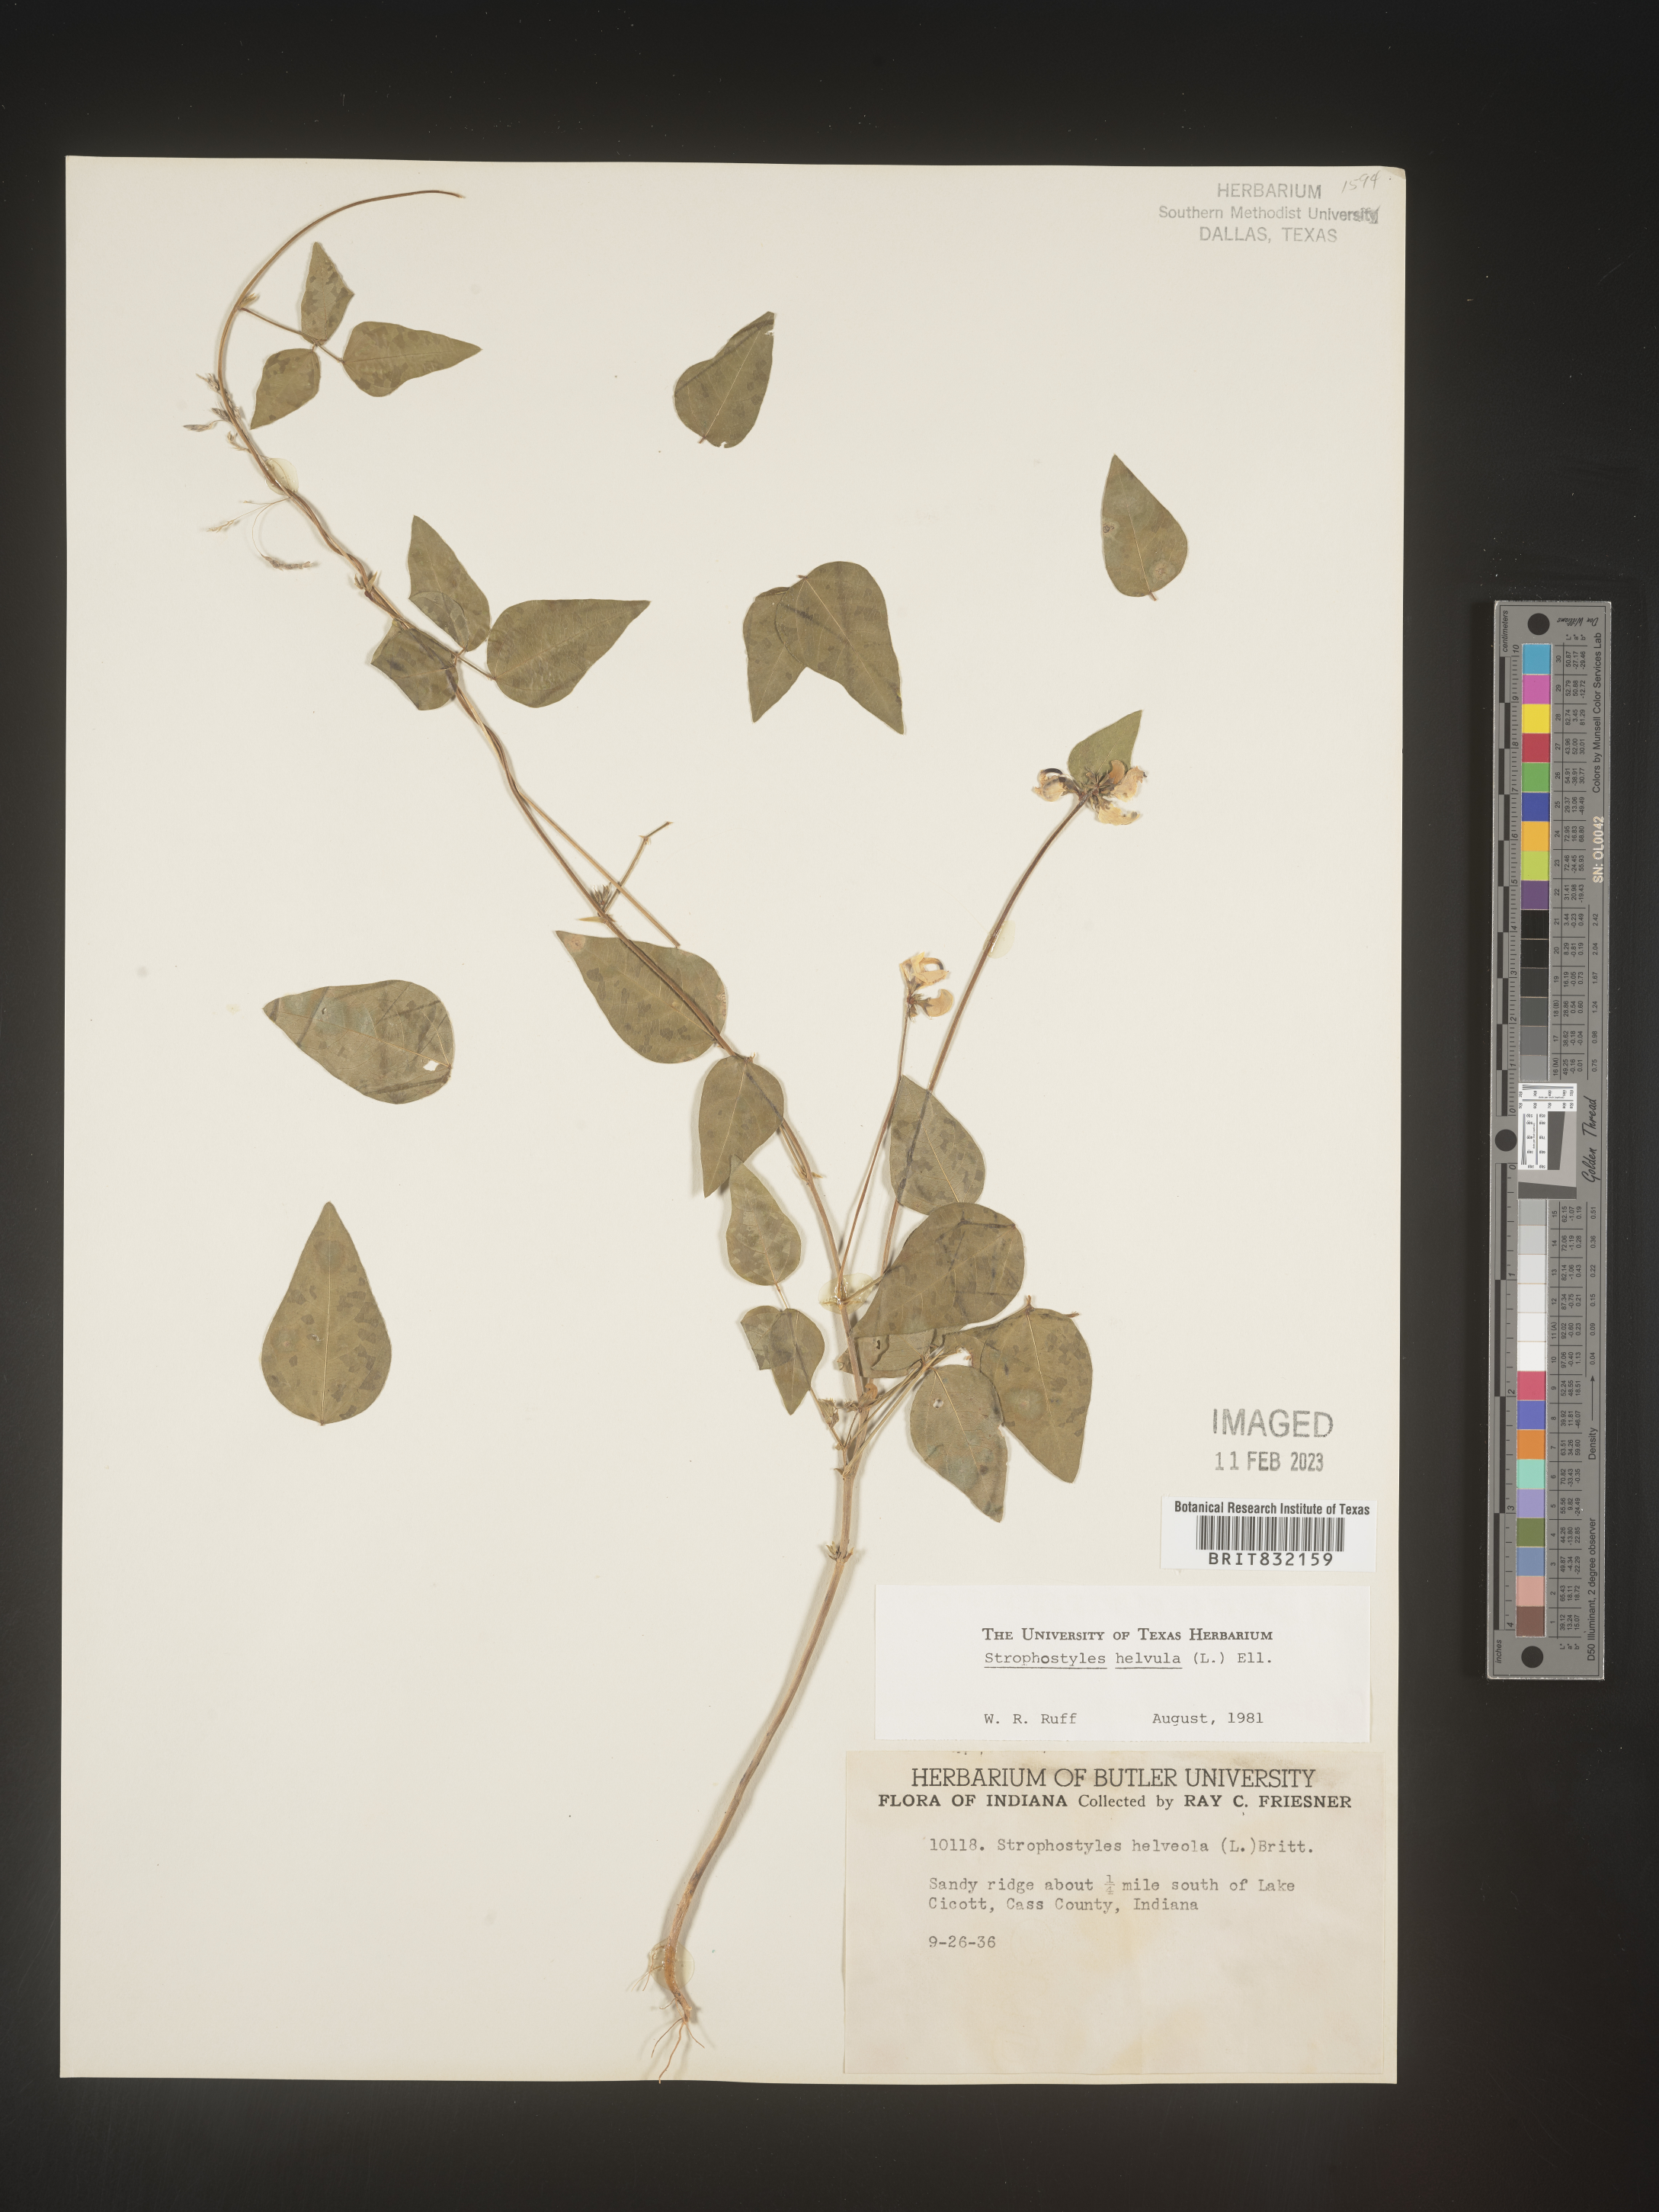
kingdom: Plantae
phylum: Tracheophyta
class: Magnoliopsida
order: Fabales
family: Fabaceae
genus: Strophostyles
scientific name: Strophostyles helvola
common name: Trailing wild bean
